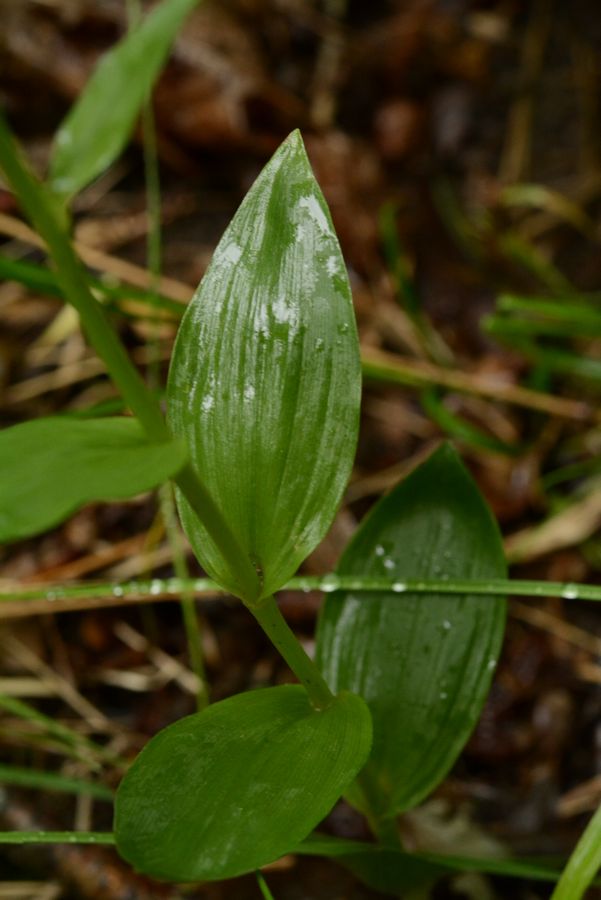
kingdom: Plantae
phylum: Tracheophyta
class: Liliopsida
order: Asparagales
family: Orchidaceae
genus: Cephalanthera
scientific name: Cephalanthera damasonium
